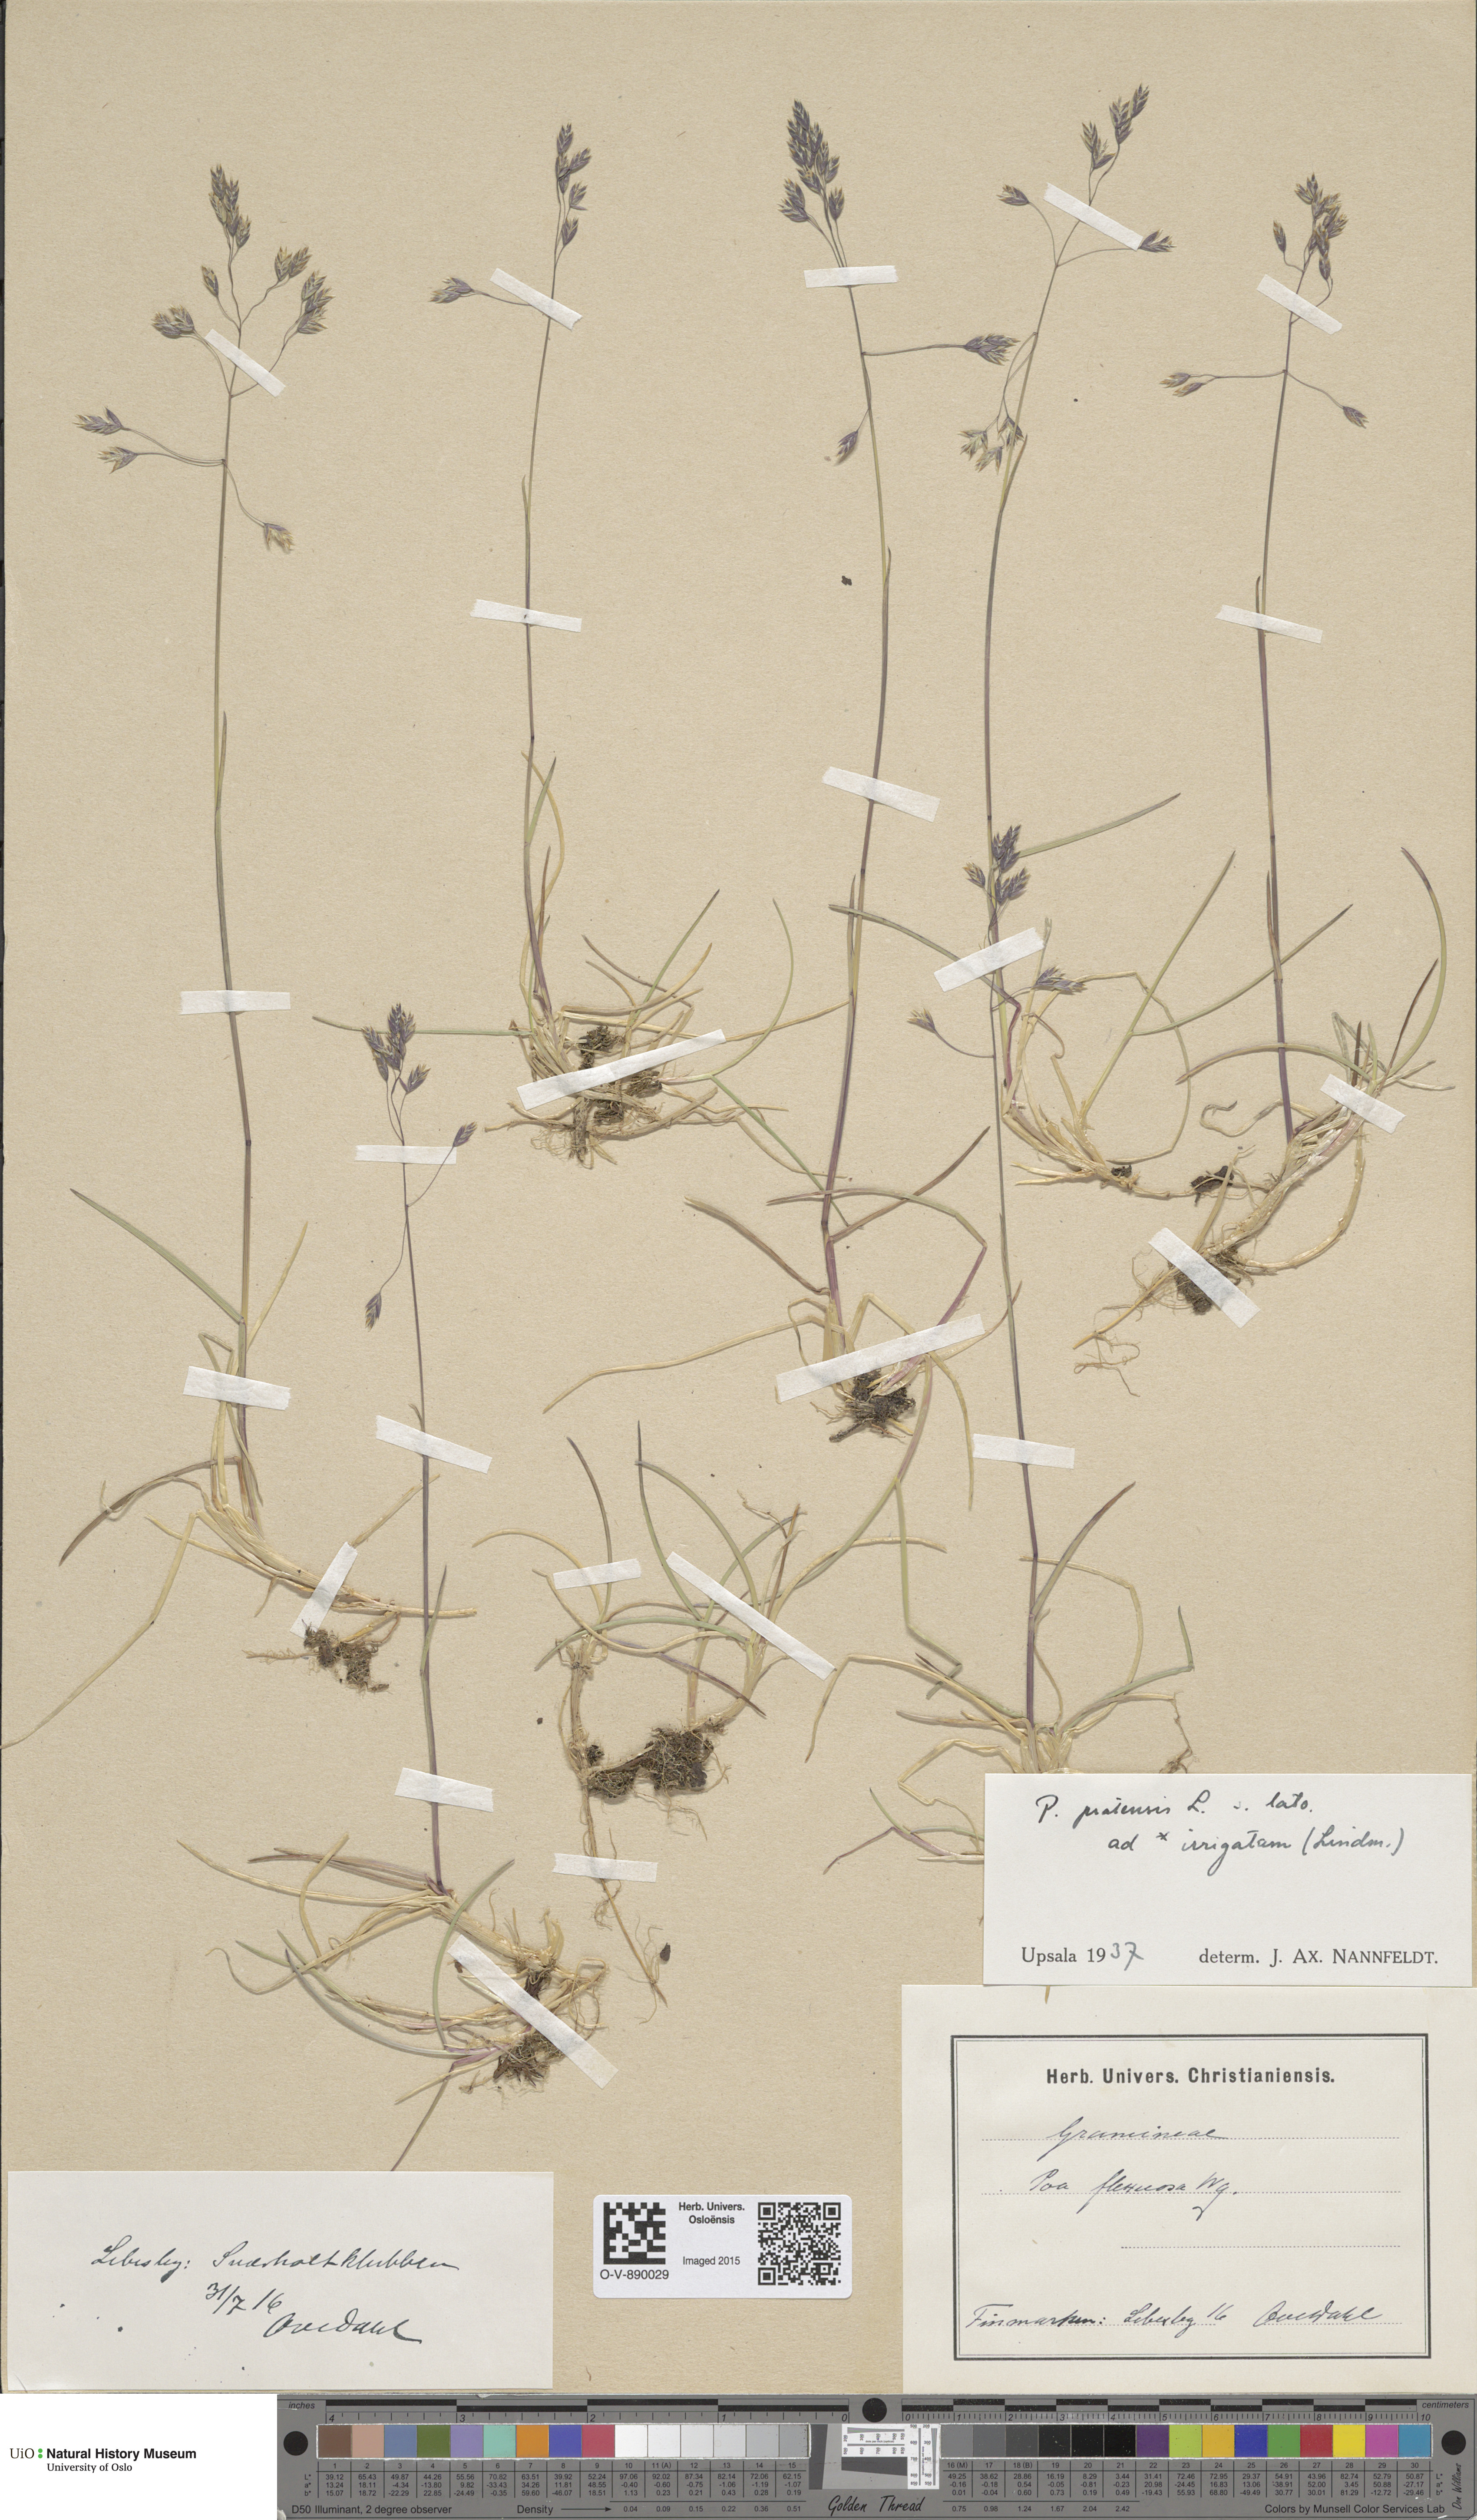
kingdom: Plantae
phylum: Tracheophyta
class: Liliopsida
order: Poales
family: Poaceae
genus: Poa
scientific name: Poa humilis
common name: Spreading meadow-grass
